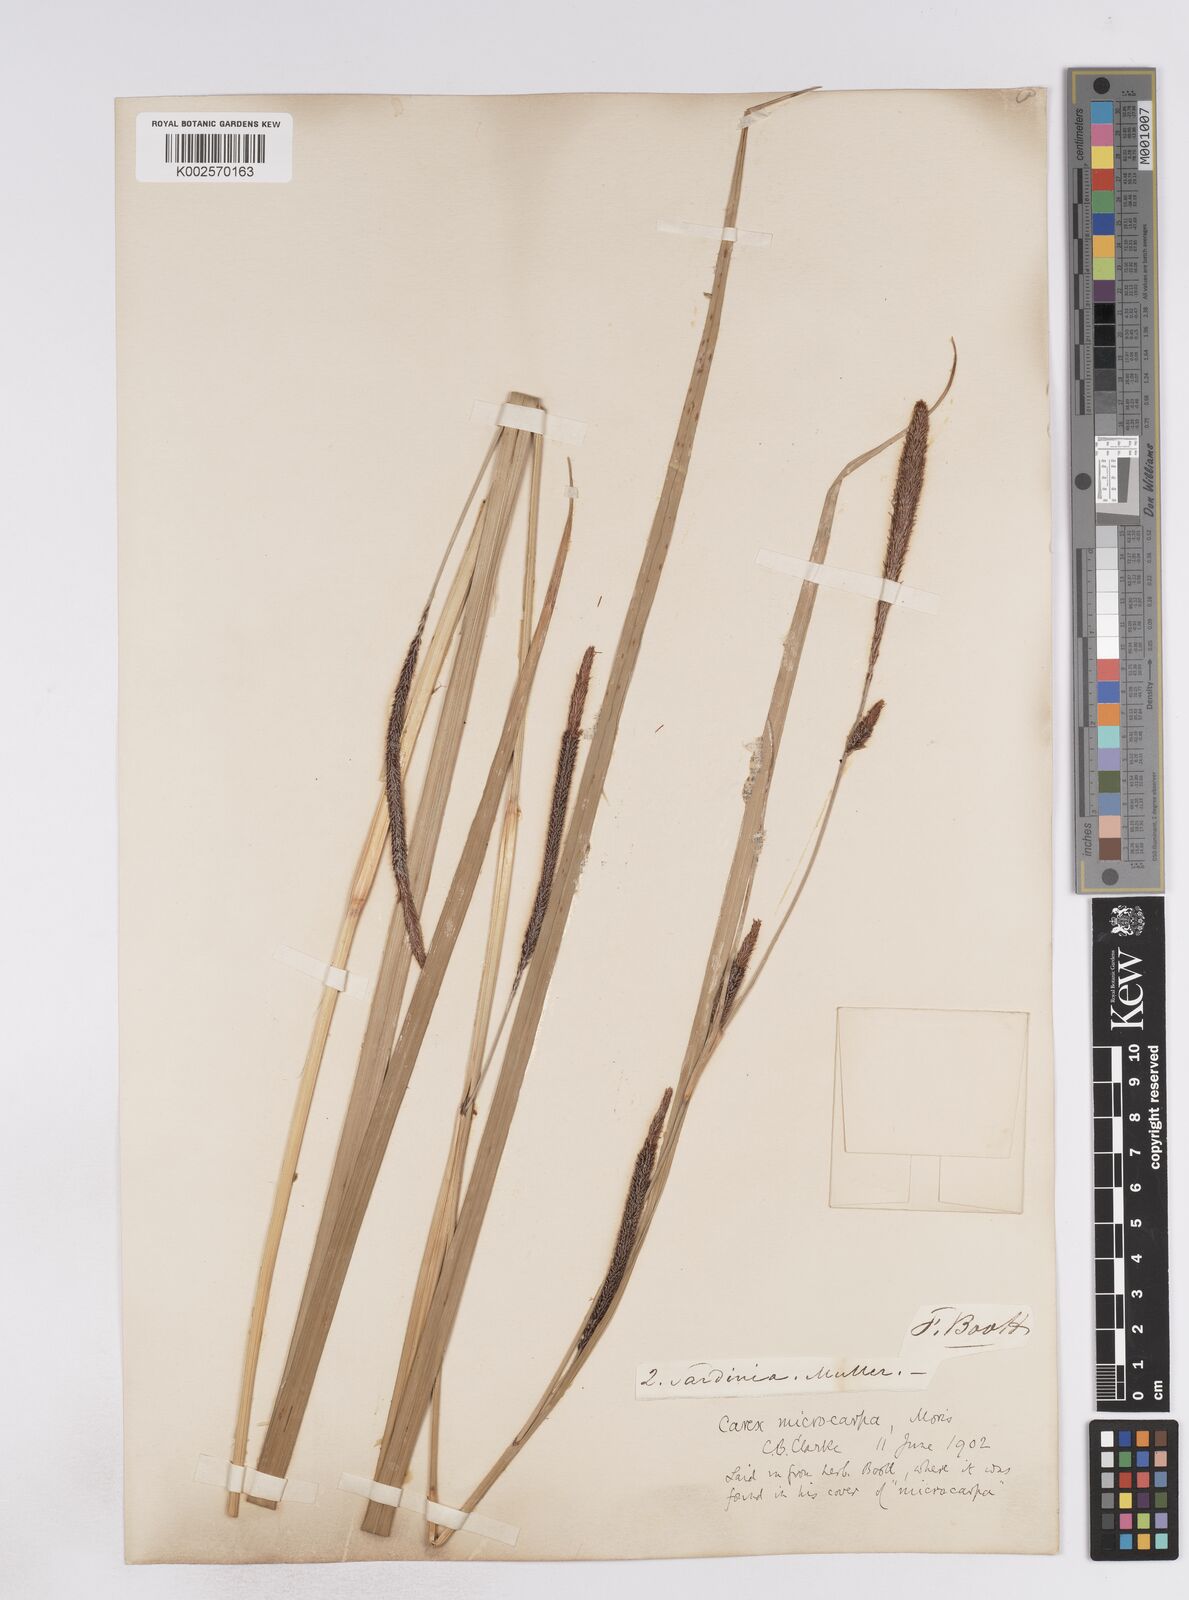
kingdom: Plantae
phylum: Tracheophyta
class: Liliopsida
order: Poales
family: Cyperaceae
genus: Carex
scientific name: Carex microcarpa
